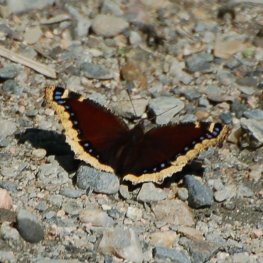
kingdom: Animalia
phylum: Arthropoda
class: Insecta
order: Lepidoptera
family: Nymphalidae
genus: Nymphalis
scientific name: Nymphalis antiopa
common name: Mourning Cloak
